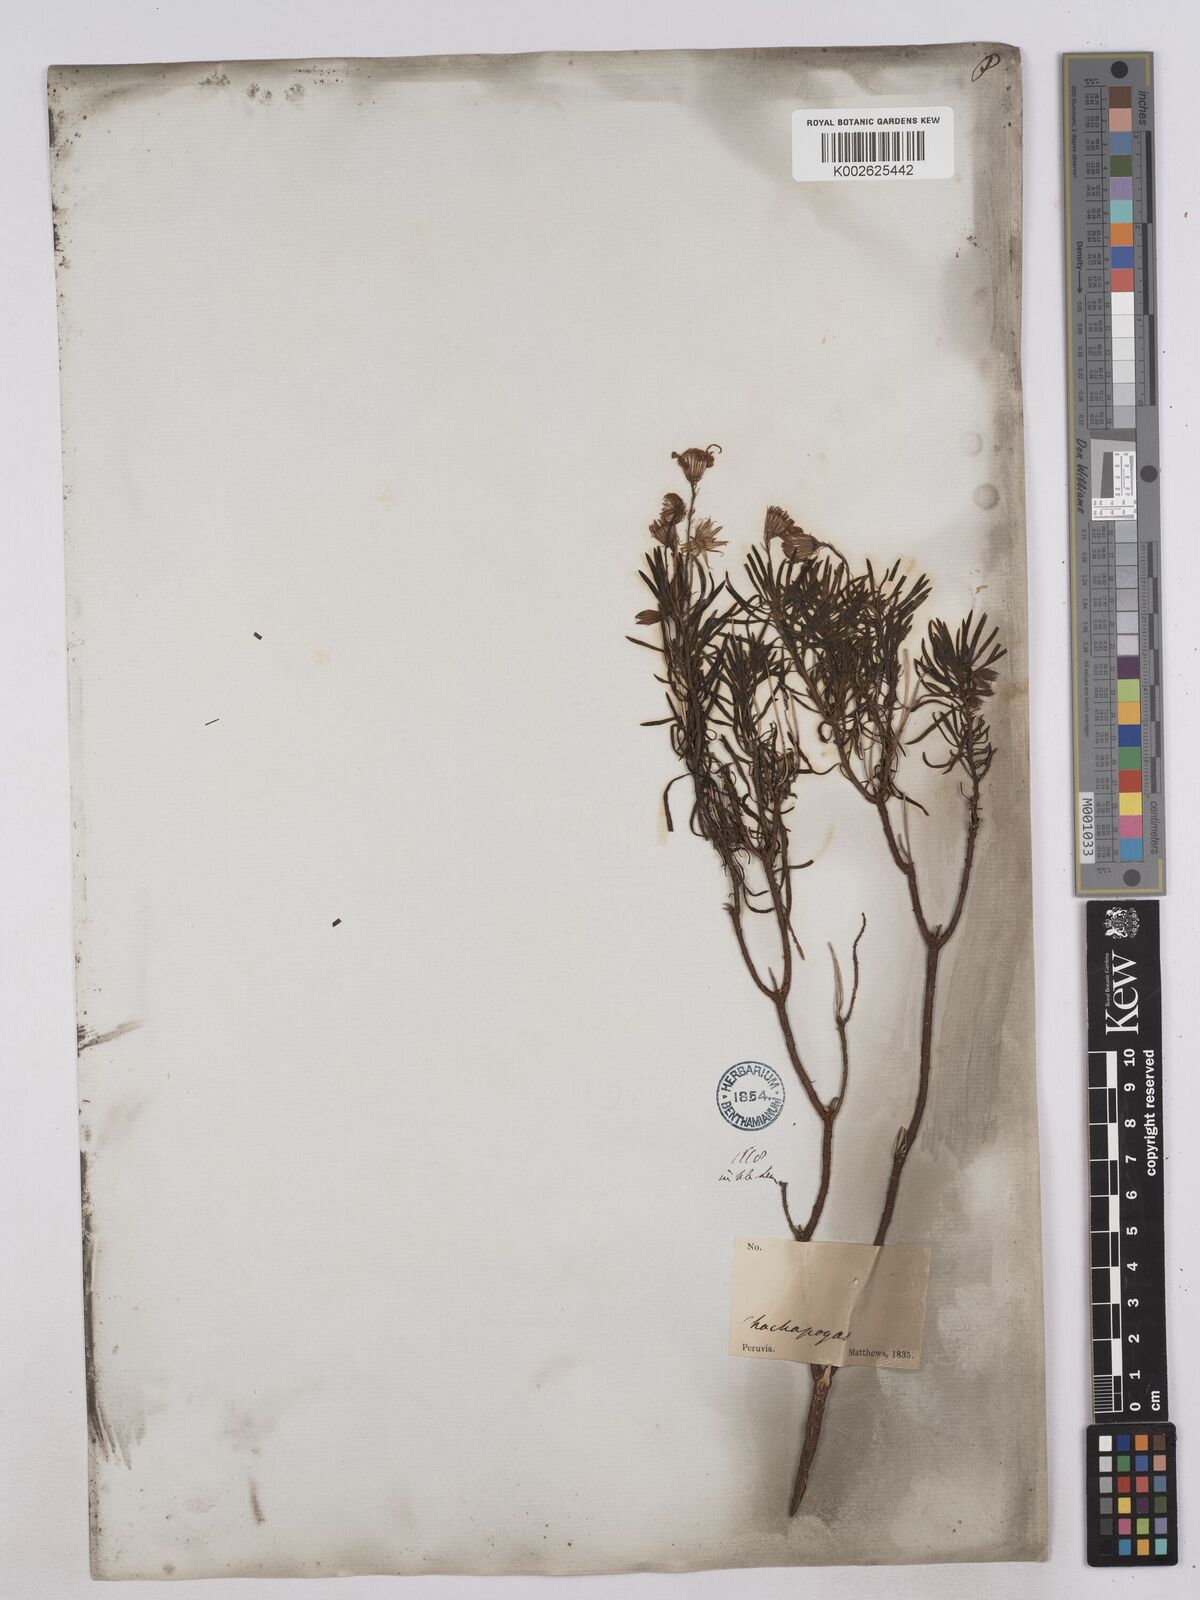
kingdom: Plantae
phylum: Tracheophyta
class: Magnoliopsida
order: Asterales
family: Asteraceae
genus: Senecio
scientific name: Senecio laricifolius
